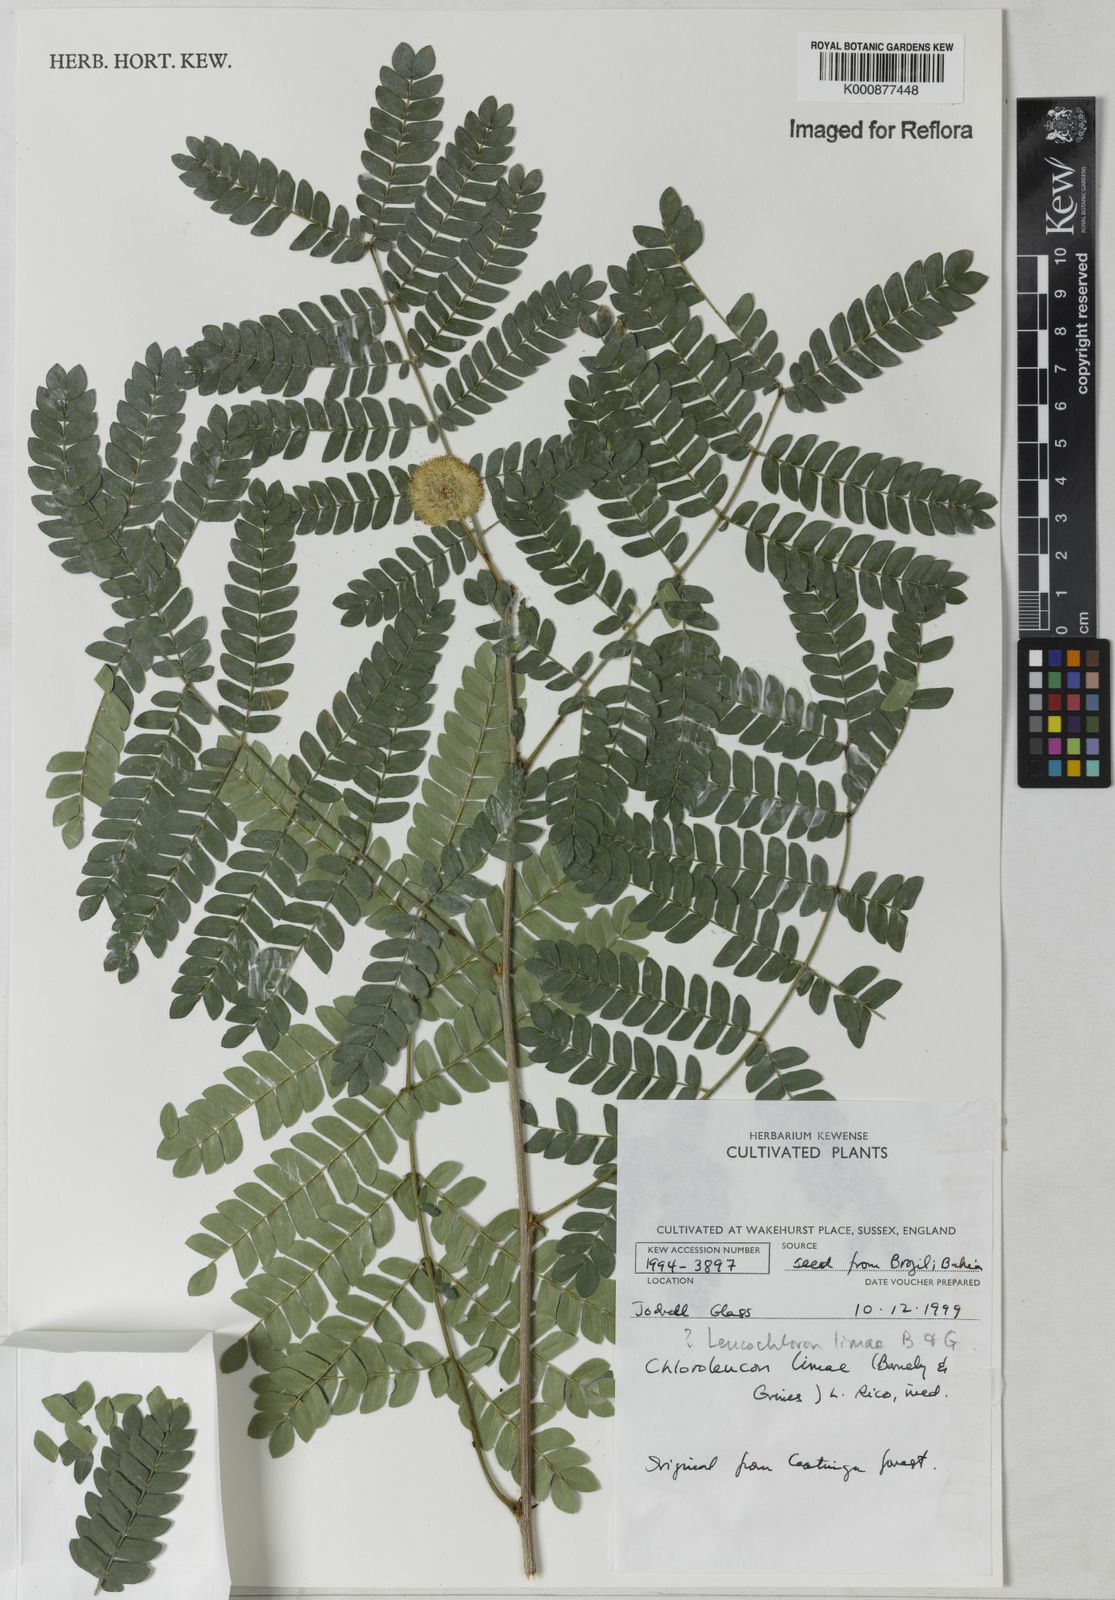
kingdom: Plantae
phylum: Tracheophyta
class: Magnoliopsida
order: Fabales
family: Fabaceae
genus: Leucochloron
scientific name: Leucochloron limae
